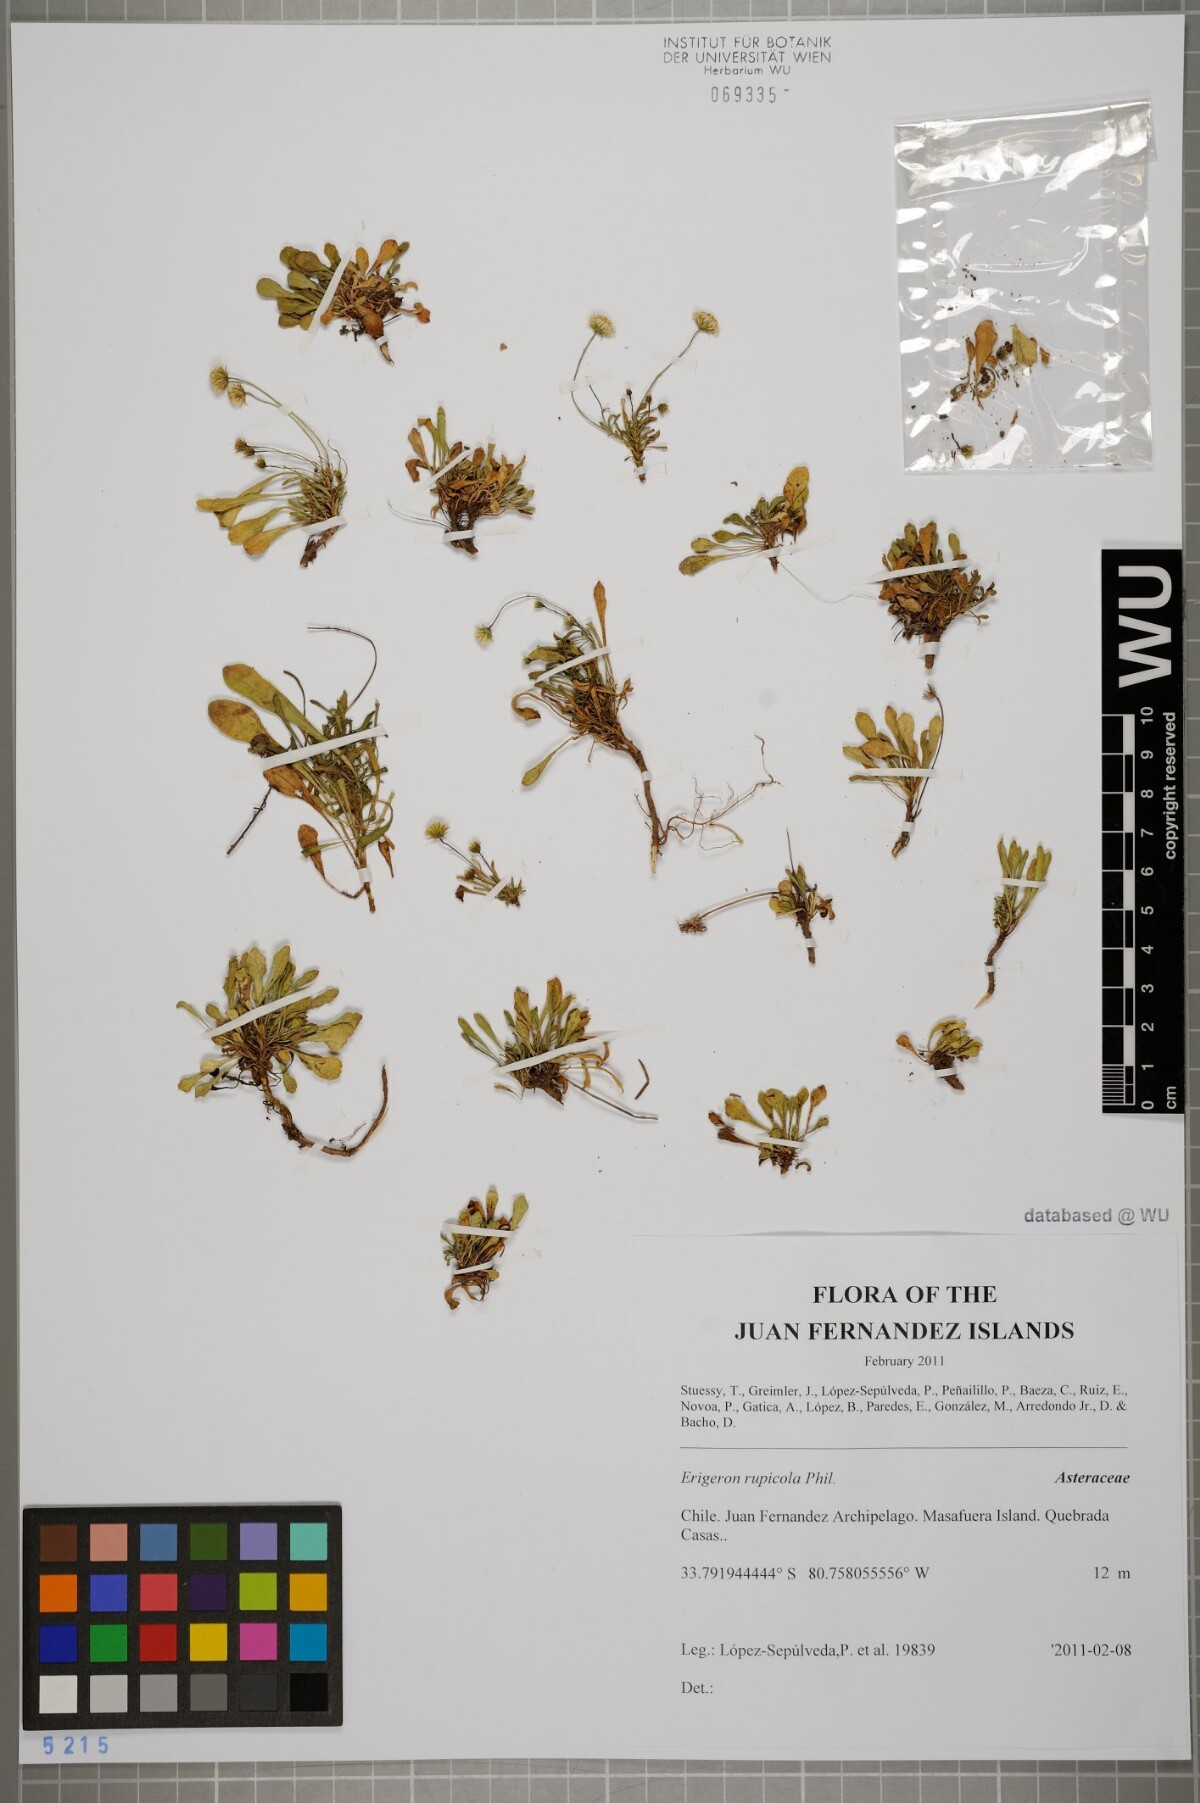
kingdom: Plantae
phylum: Tracheophyta
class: Magnoliopsida
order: Asterales
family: Asteraceae
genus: Erigeron
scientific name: Erigeron rupicola
